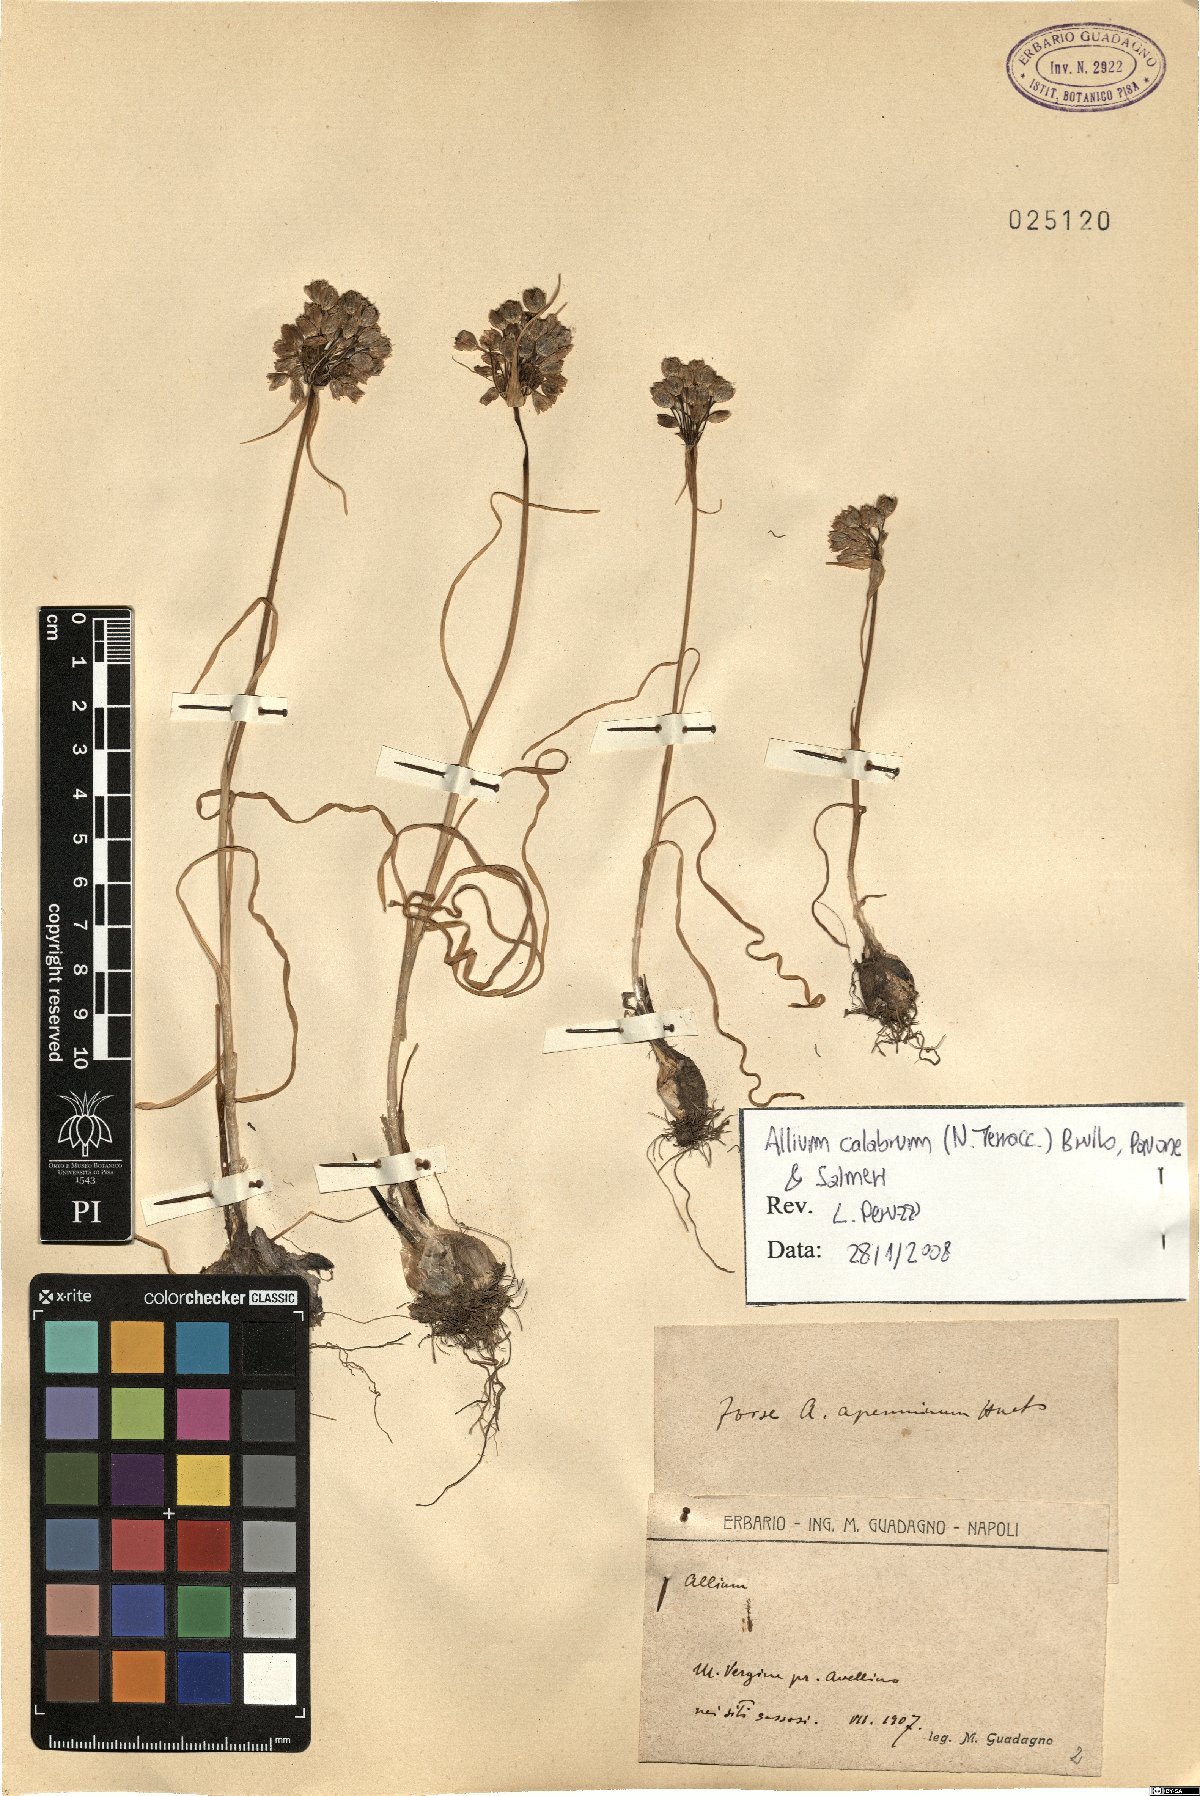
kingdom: Plantae
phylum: Tracheophyta
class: Liliopsida
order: Asparagales
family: Amaryllidaceae
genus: Allium
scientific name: Allium calabrum
